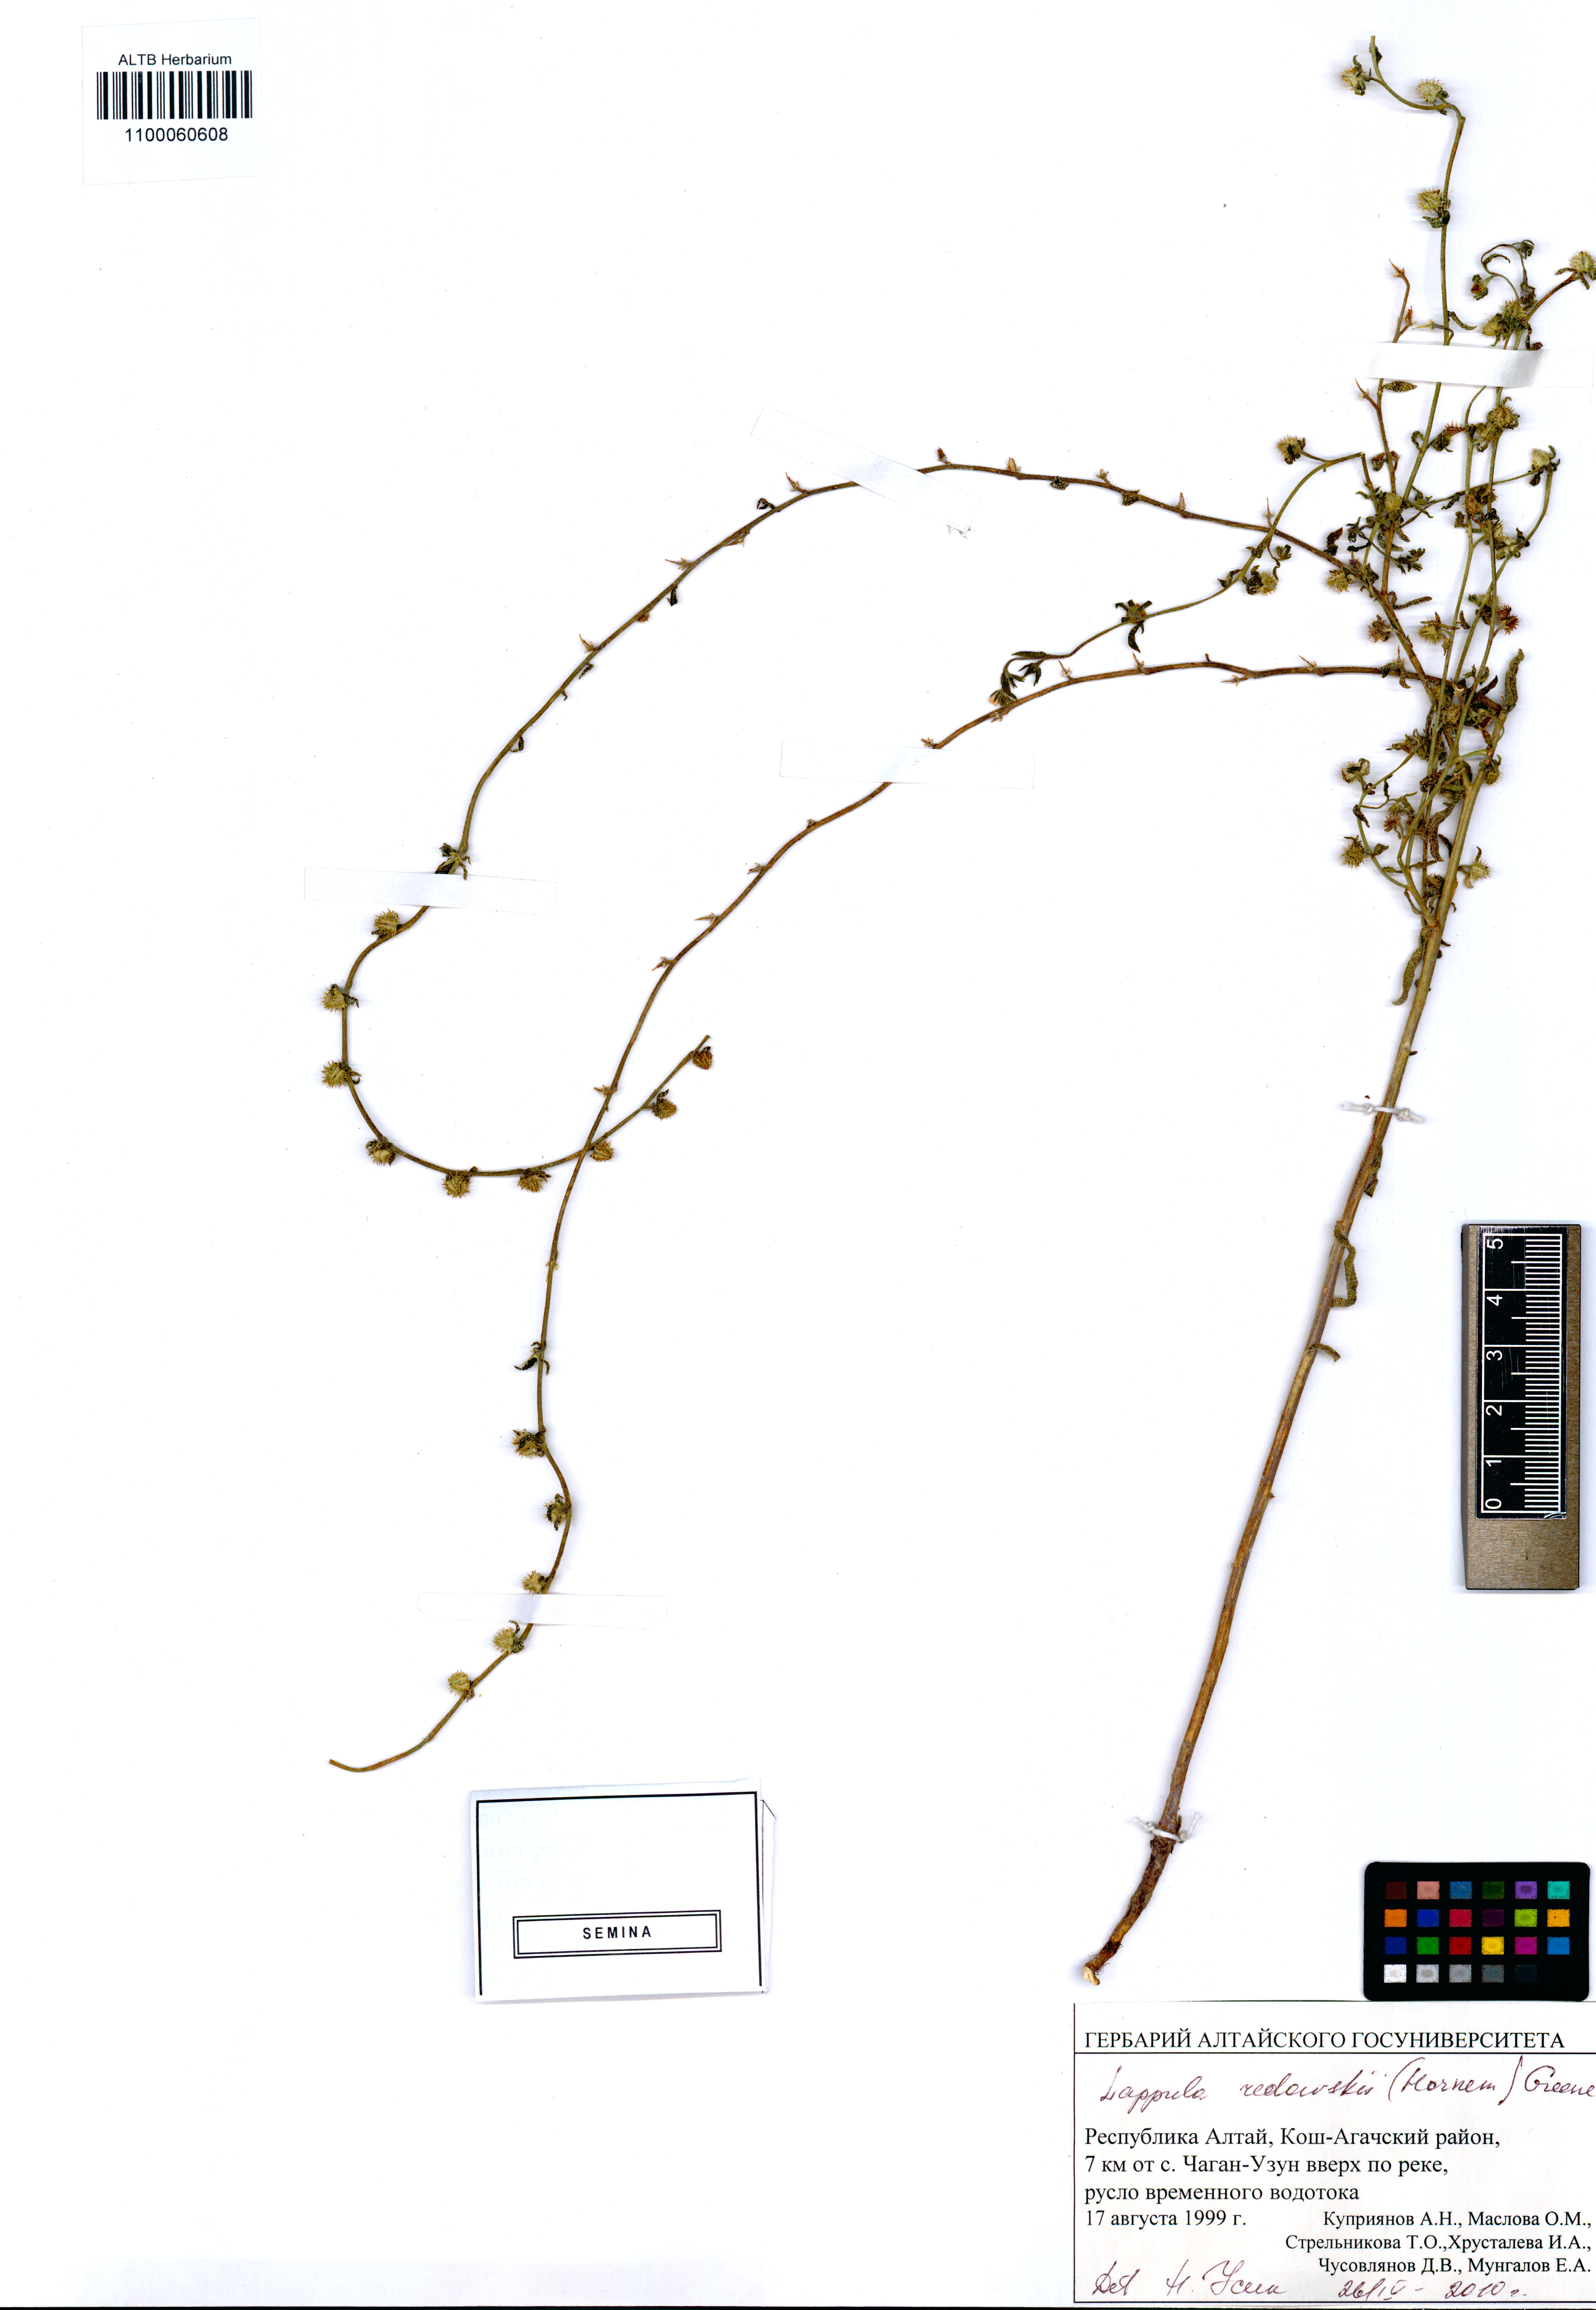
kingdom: Plantae
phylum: Tracheophyta
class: Magnoliopsida
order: Boraginales
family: Boraginaceae
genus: Lappula
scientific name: Lappula redowskii
